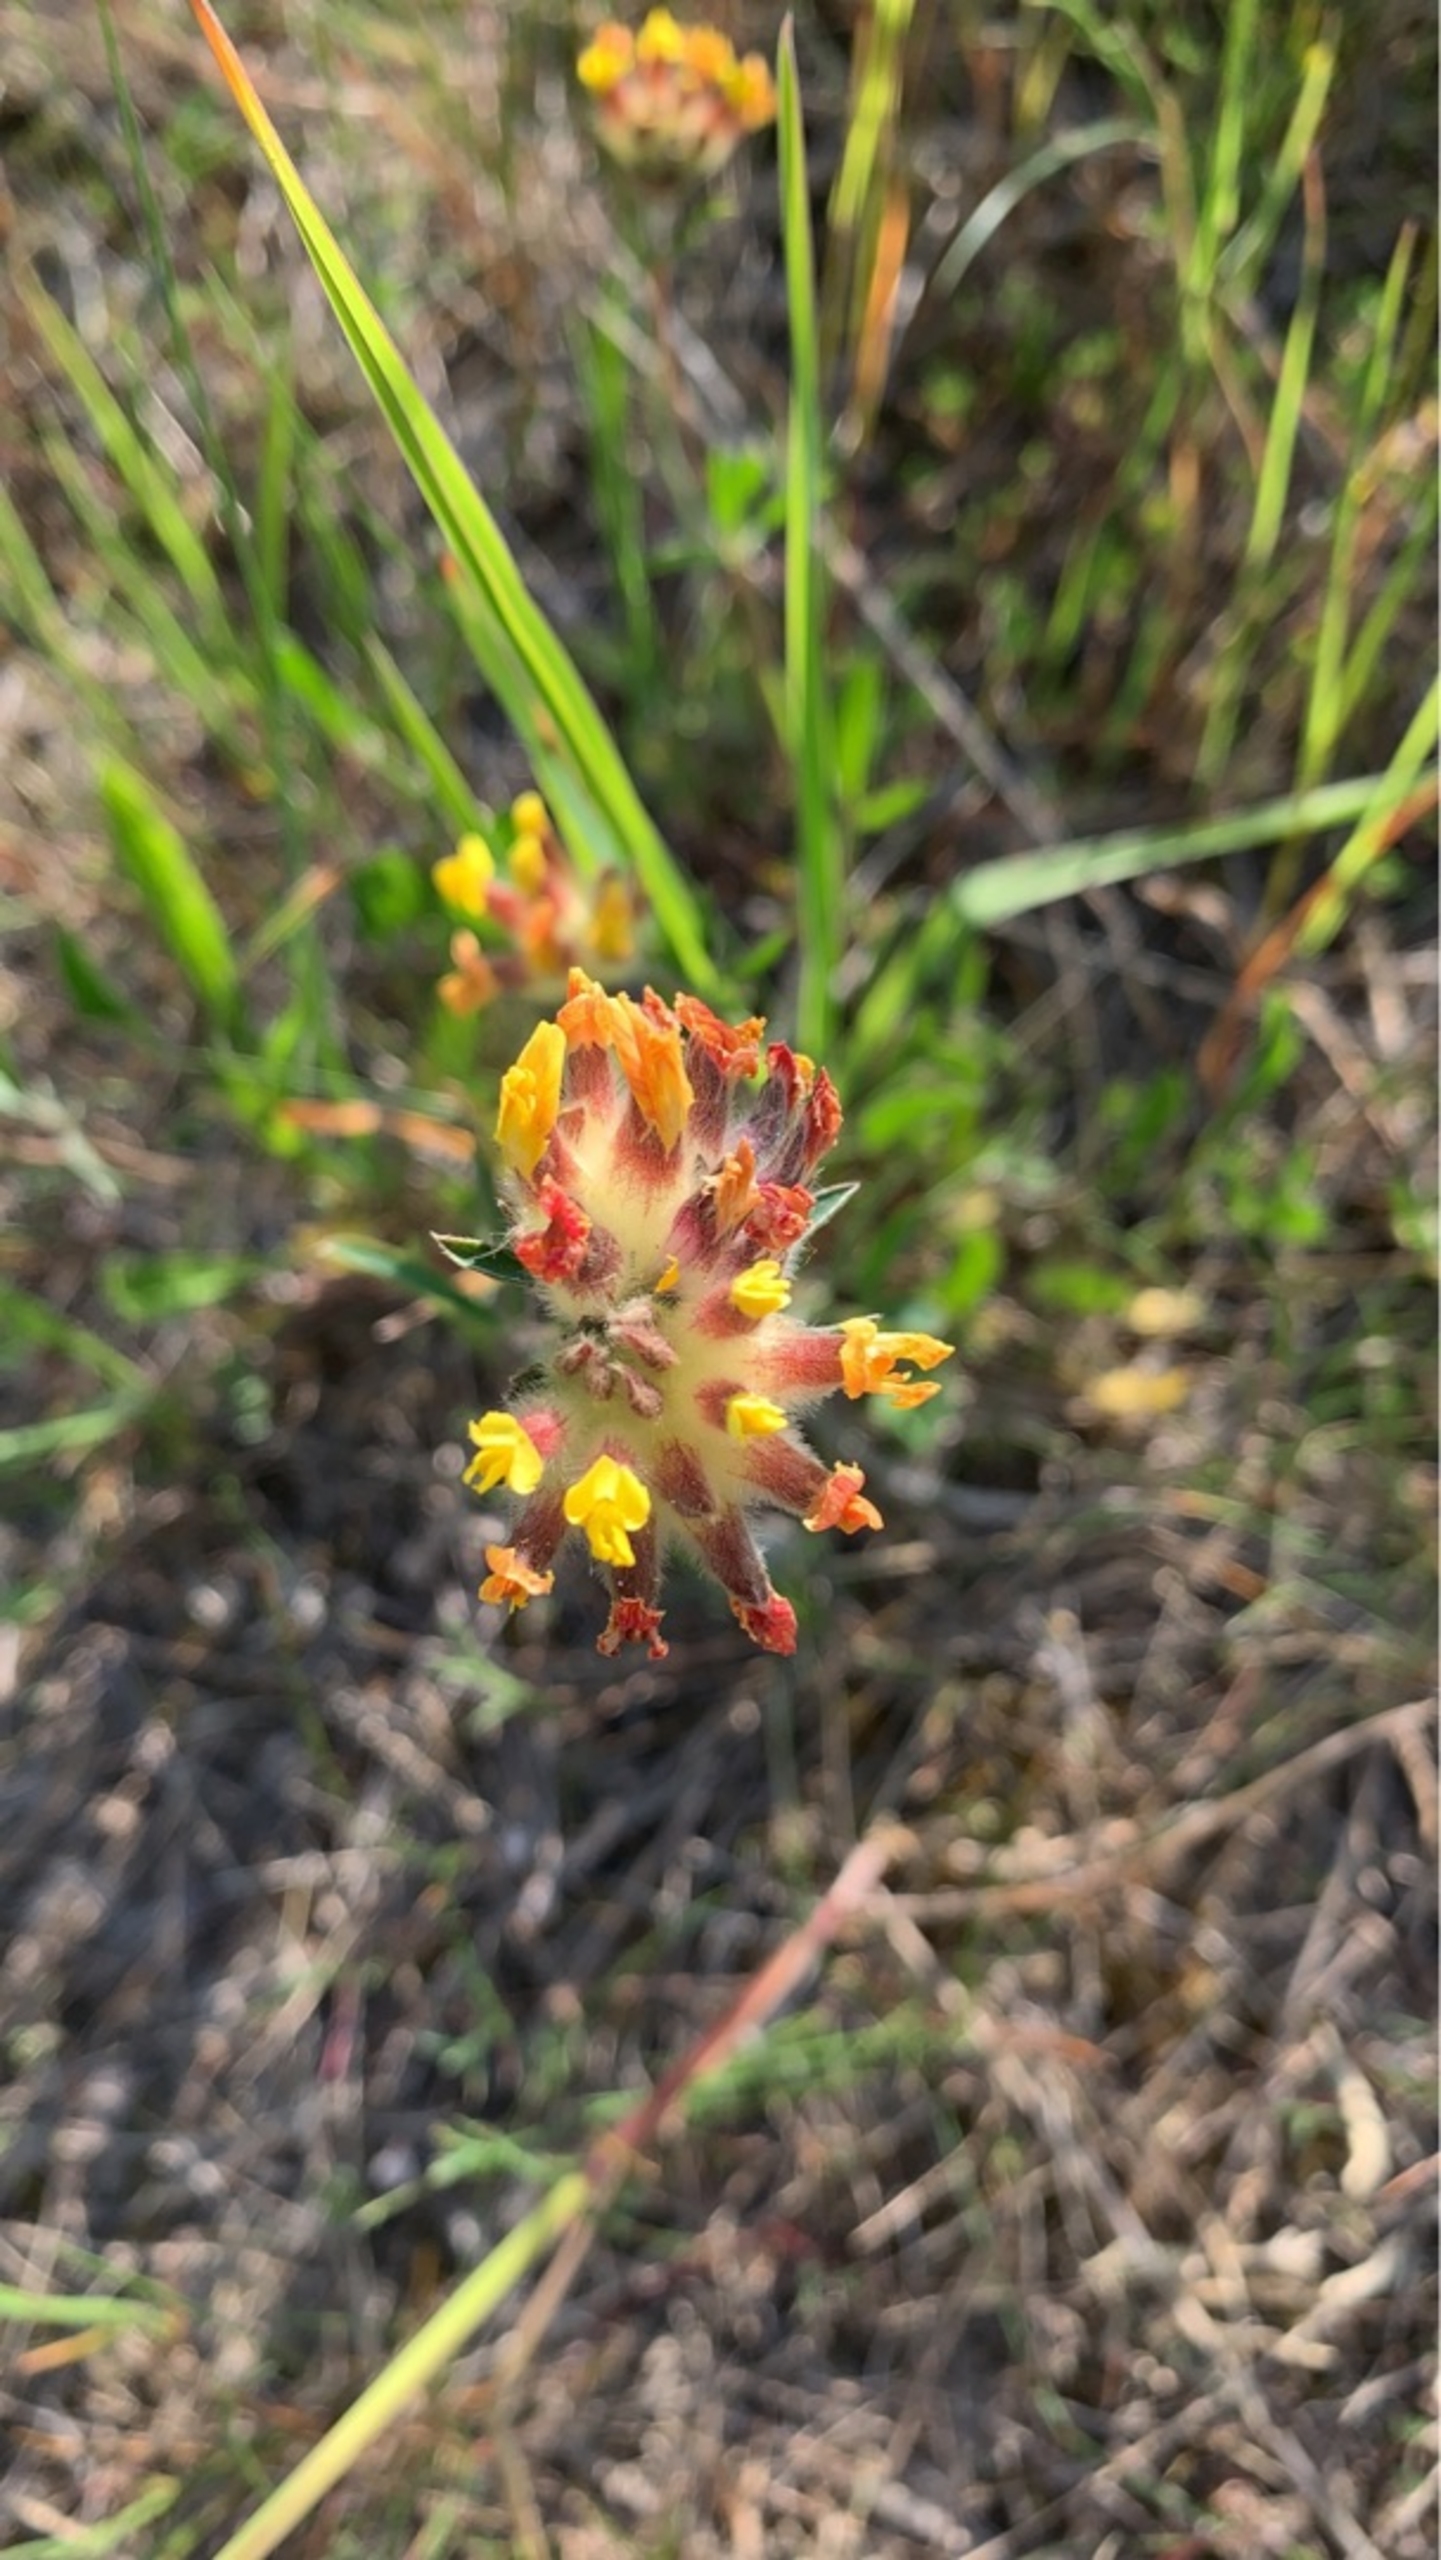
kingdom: Plantae
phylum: Tracheophyta
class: Magnoliopsida
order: Fabales
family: Fabaceae
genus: Anthyllis
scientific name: Anthyllis vulneraria
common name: Rundbælg
